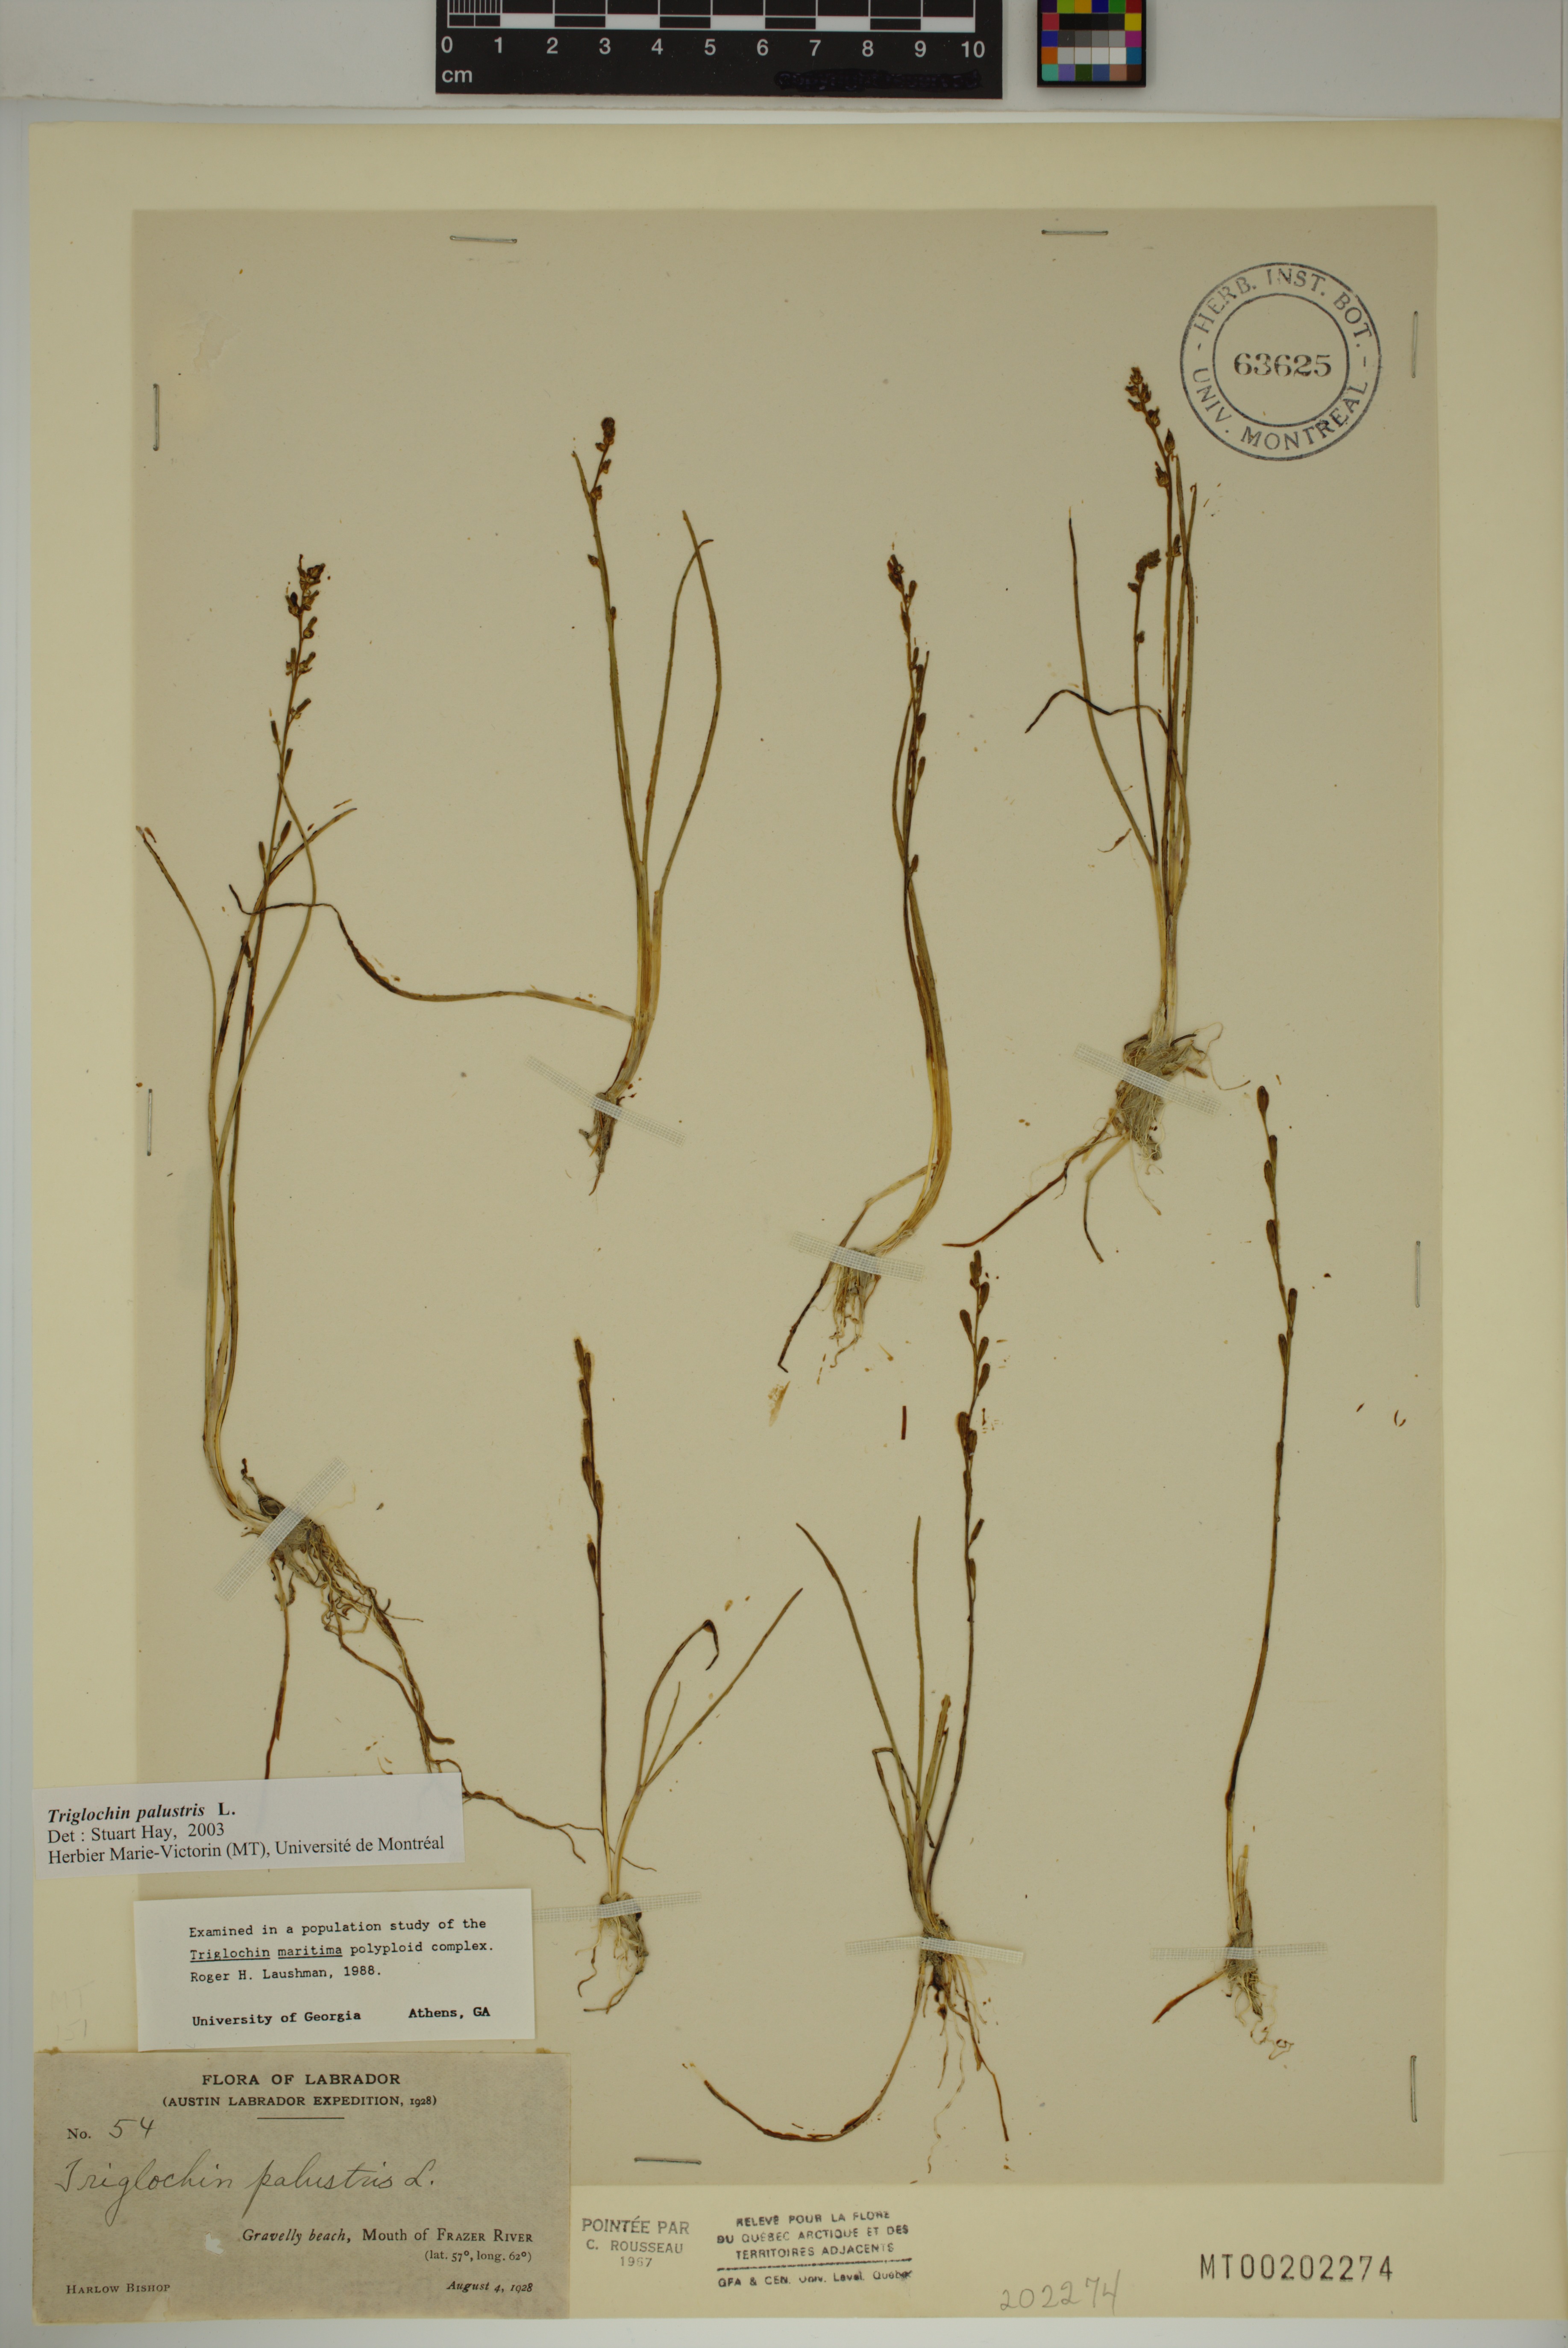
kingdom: Plantae
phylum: Tracheophyta
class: Liliopsida
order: Alismatales
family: Juncaginaceae
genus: Triglochin
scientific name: Triglochin palustris
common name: Marsh arrowgrass
